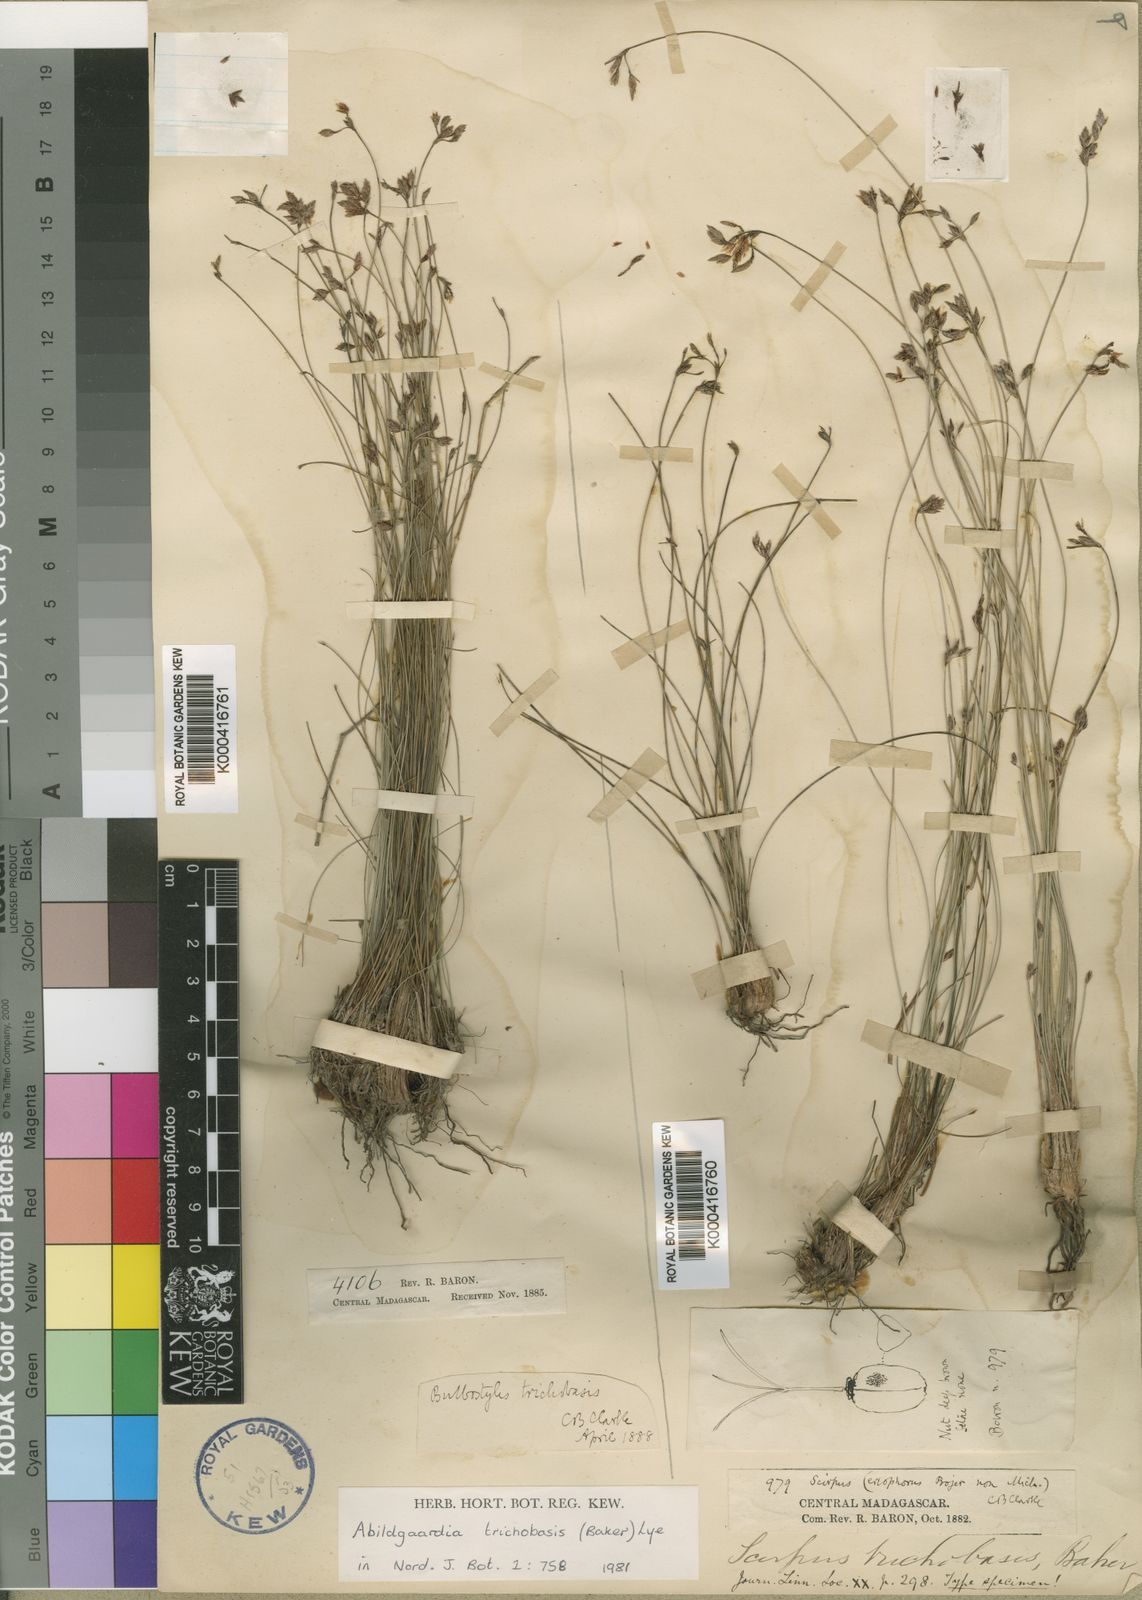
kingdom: Plantae
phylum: Tracheophyta
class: Liliopsida
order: Poales
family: Cyperaceae
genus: Bulbostylis
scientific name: Bulbostylis trichobasis
